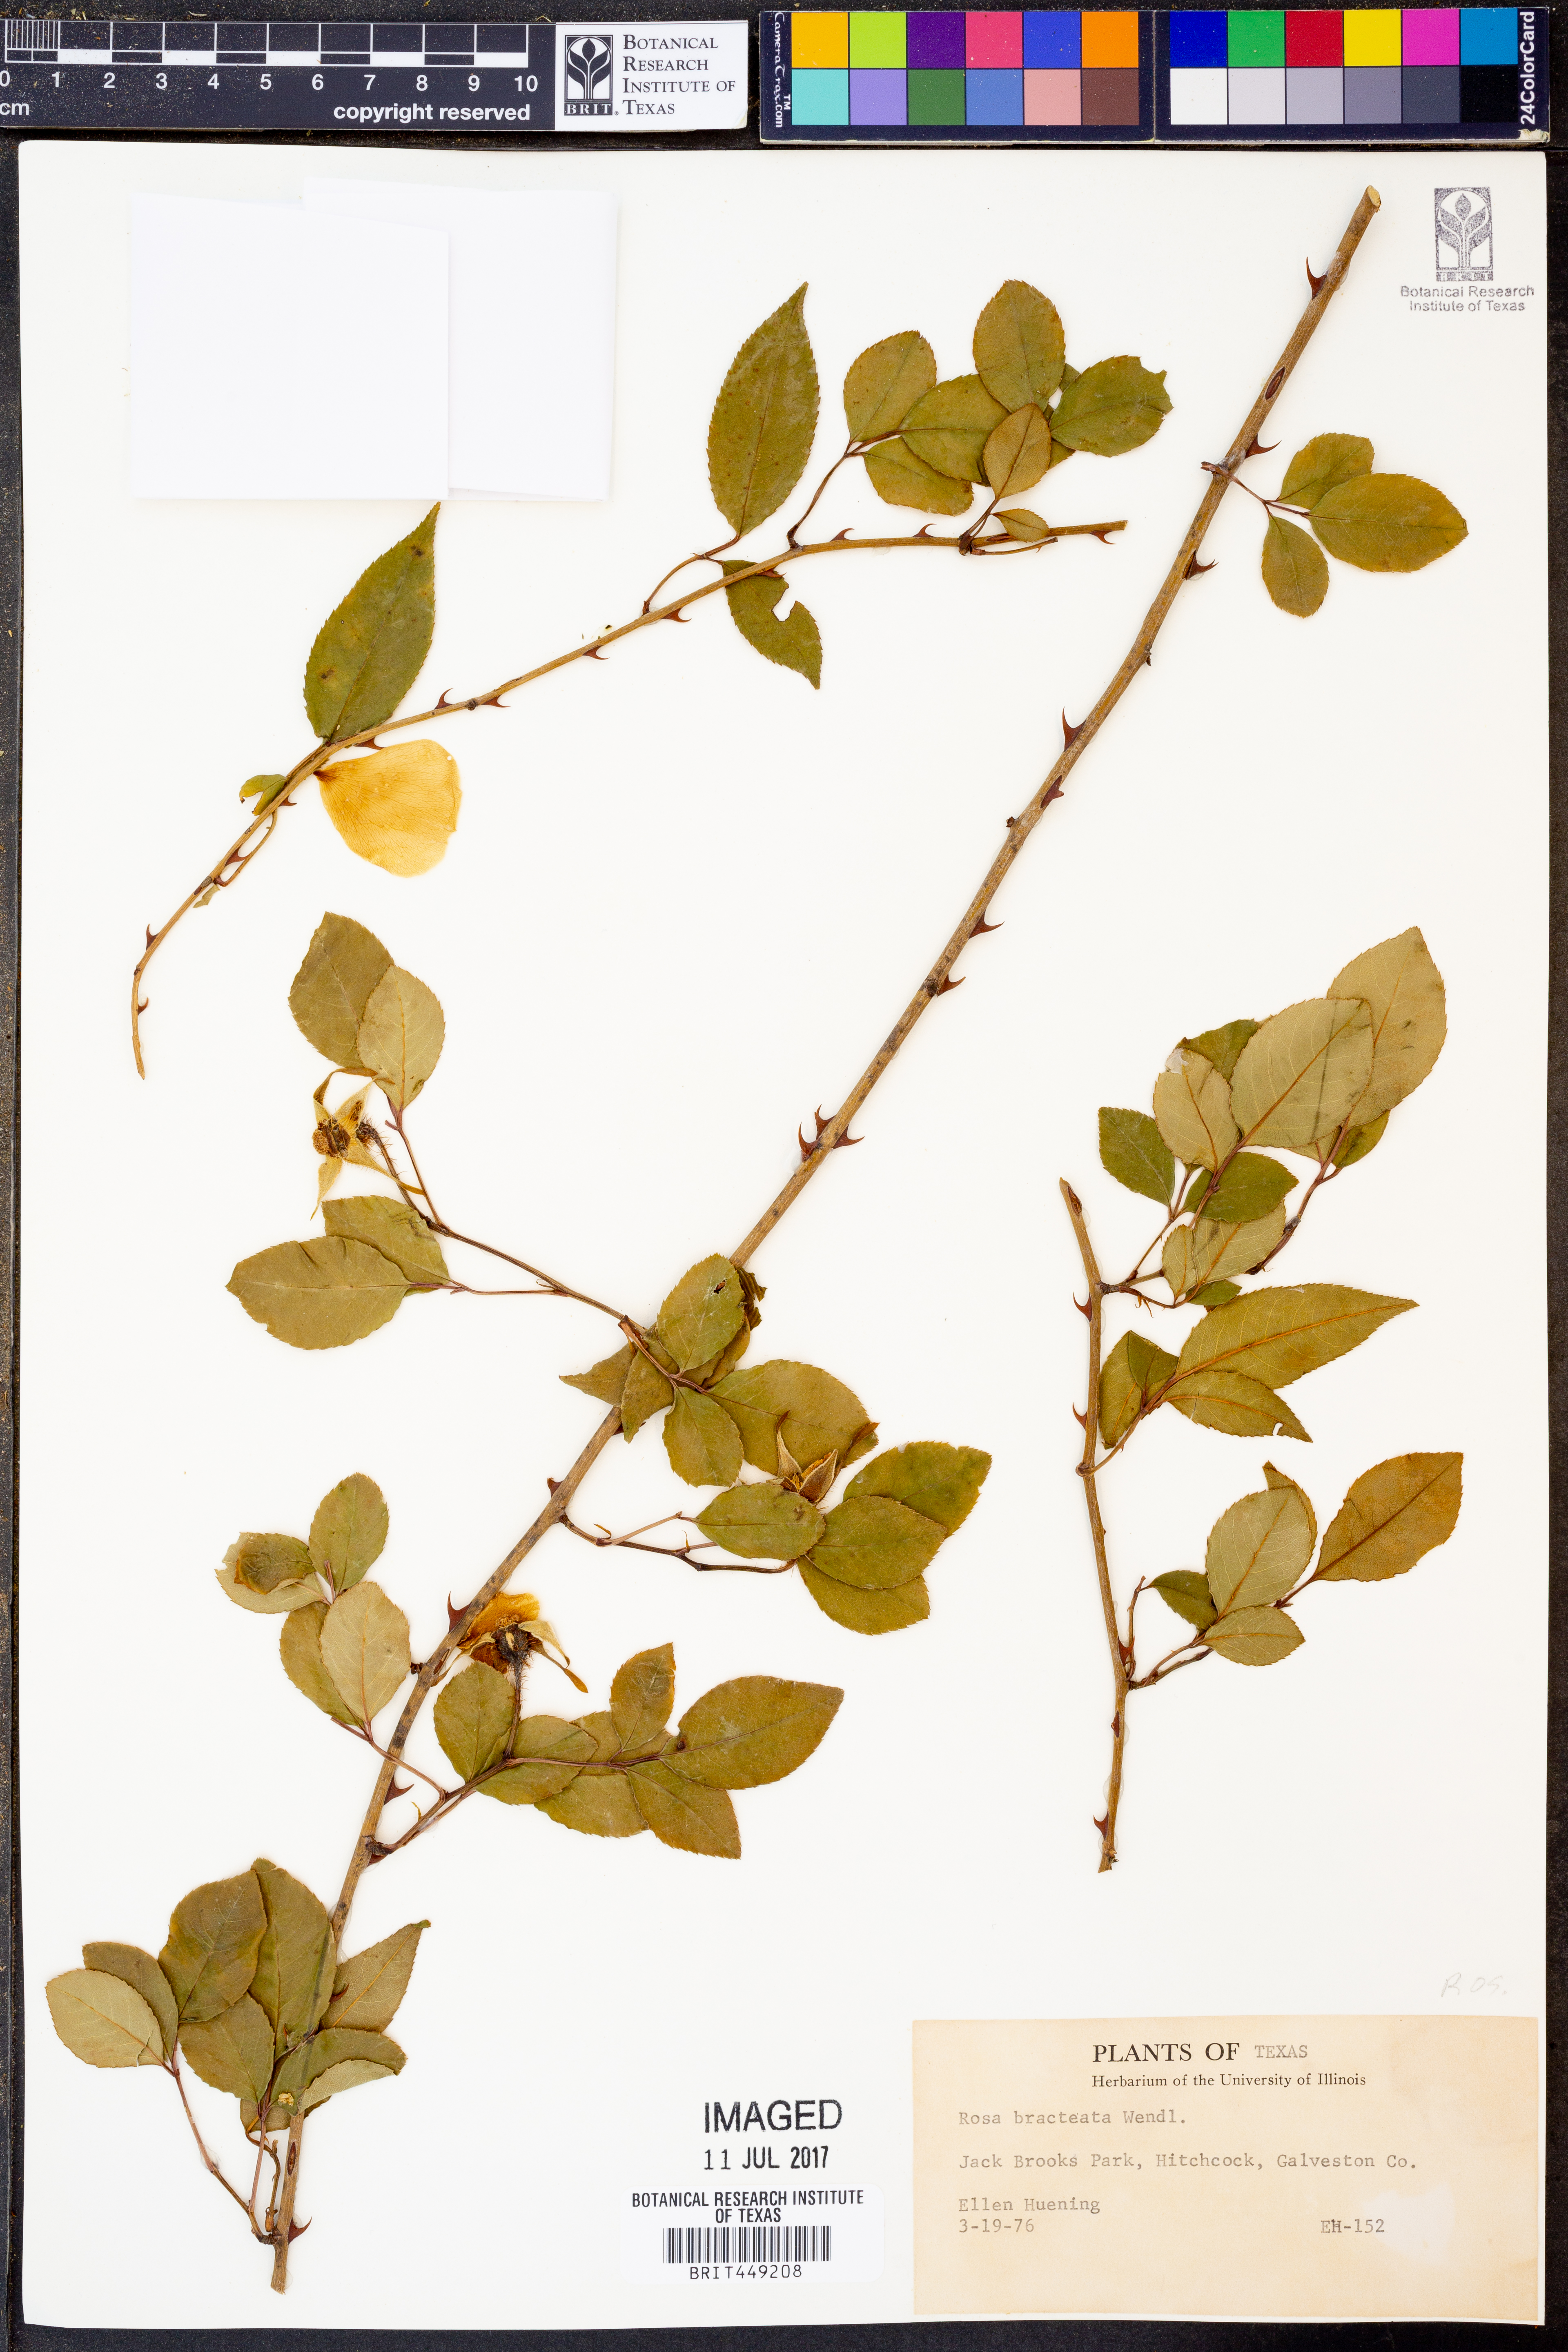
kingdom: Plantae
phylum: Tracheophyta
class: Magnoliopsida
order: Rosales
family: Rosaceae
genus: Rosa
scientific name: Rosa bracteata
